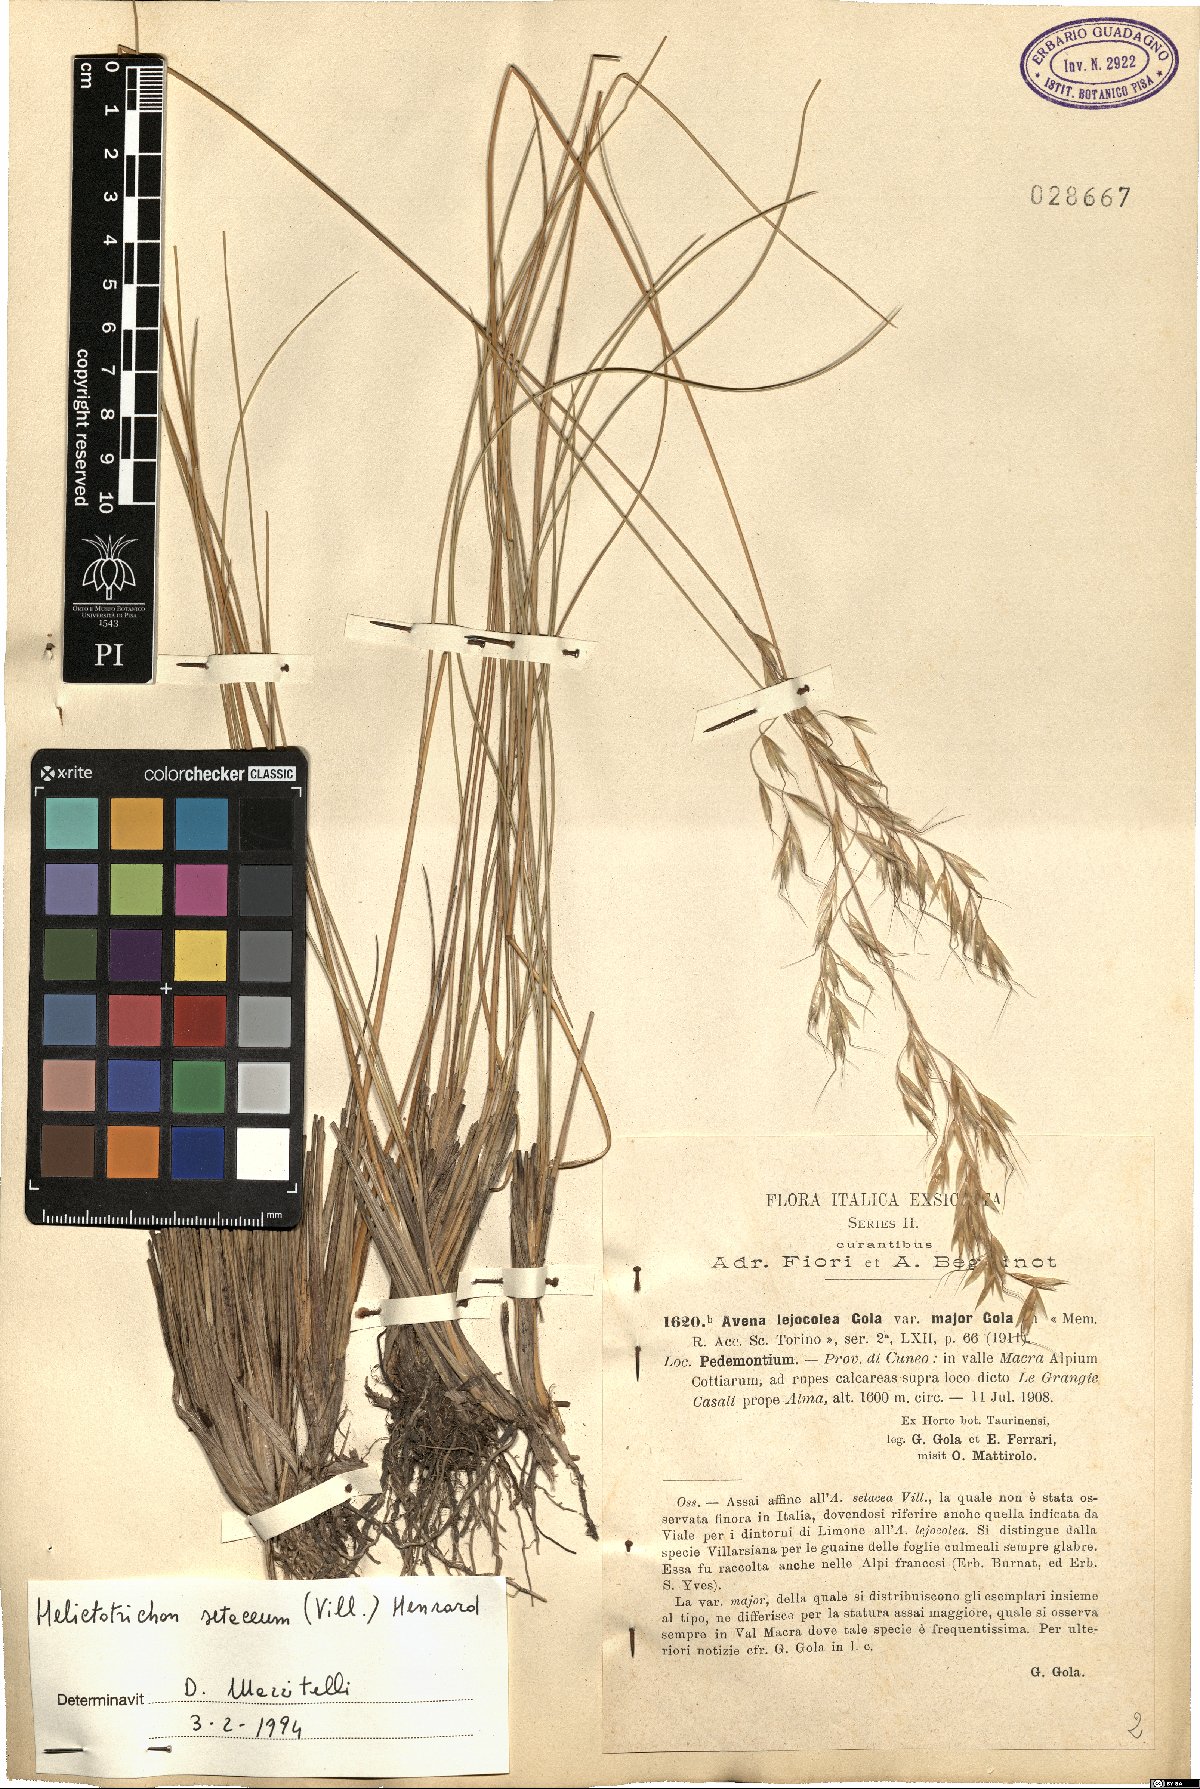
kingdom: Plantae
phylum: Tracheophyta
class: Liliopsida
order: Poales
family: Poaceae
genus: Helictotrichon
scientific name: Helictotrichon setaceum
